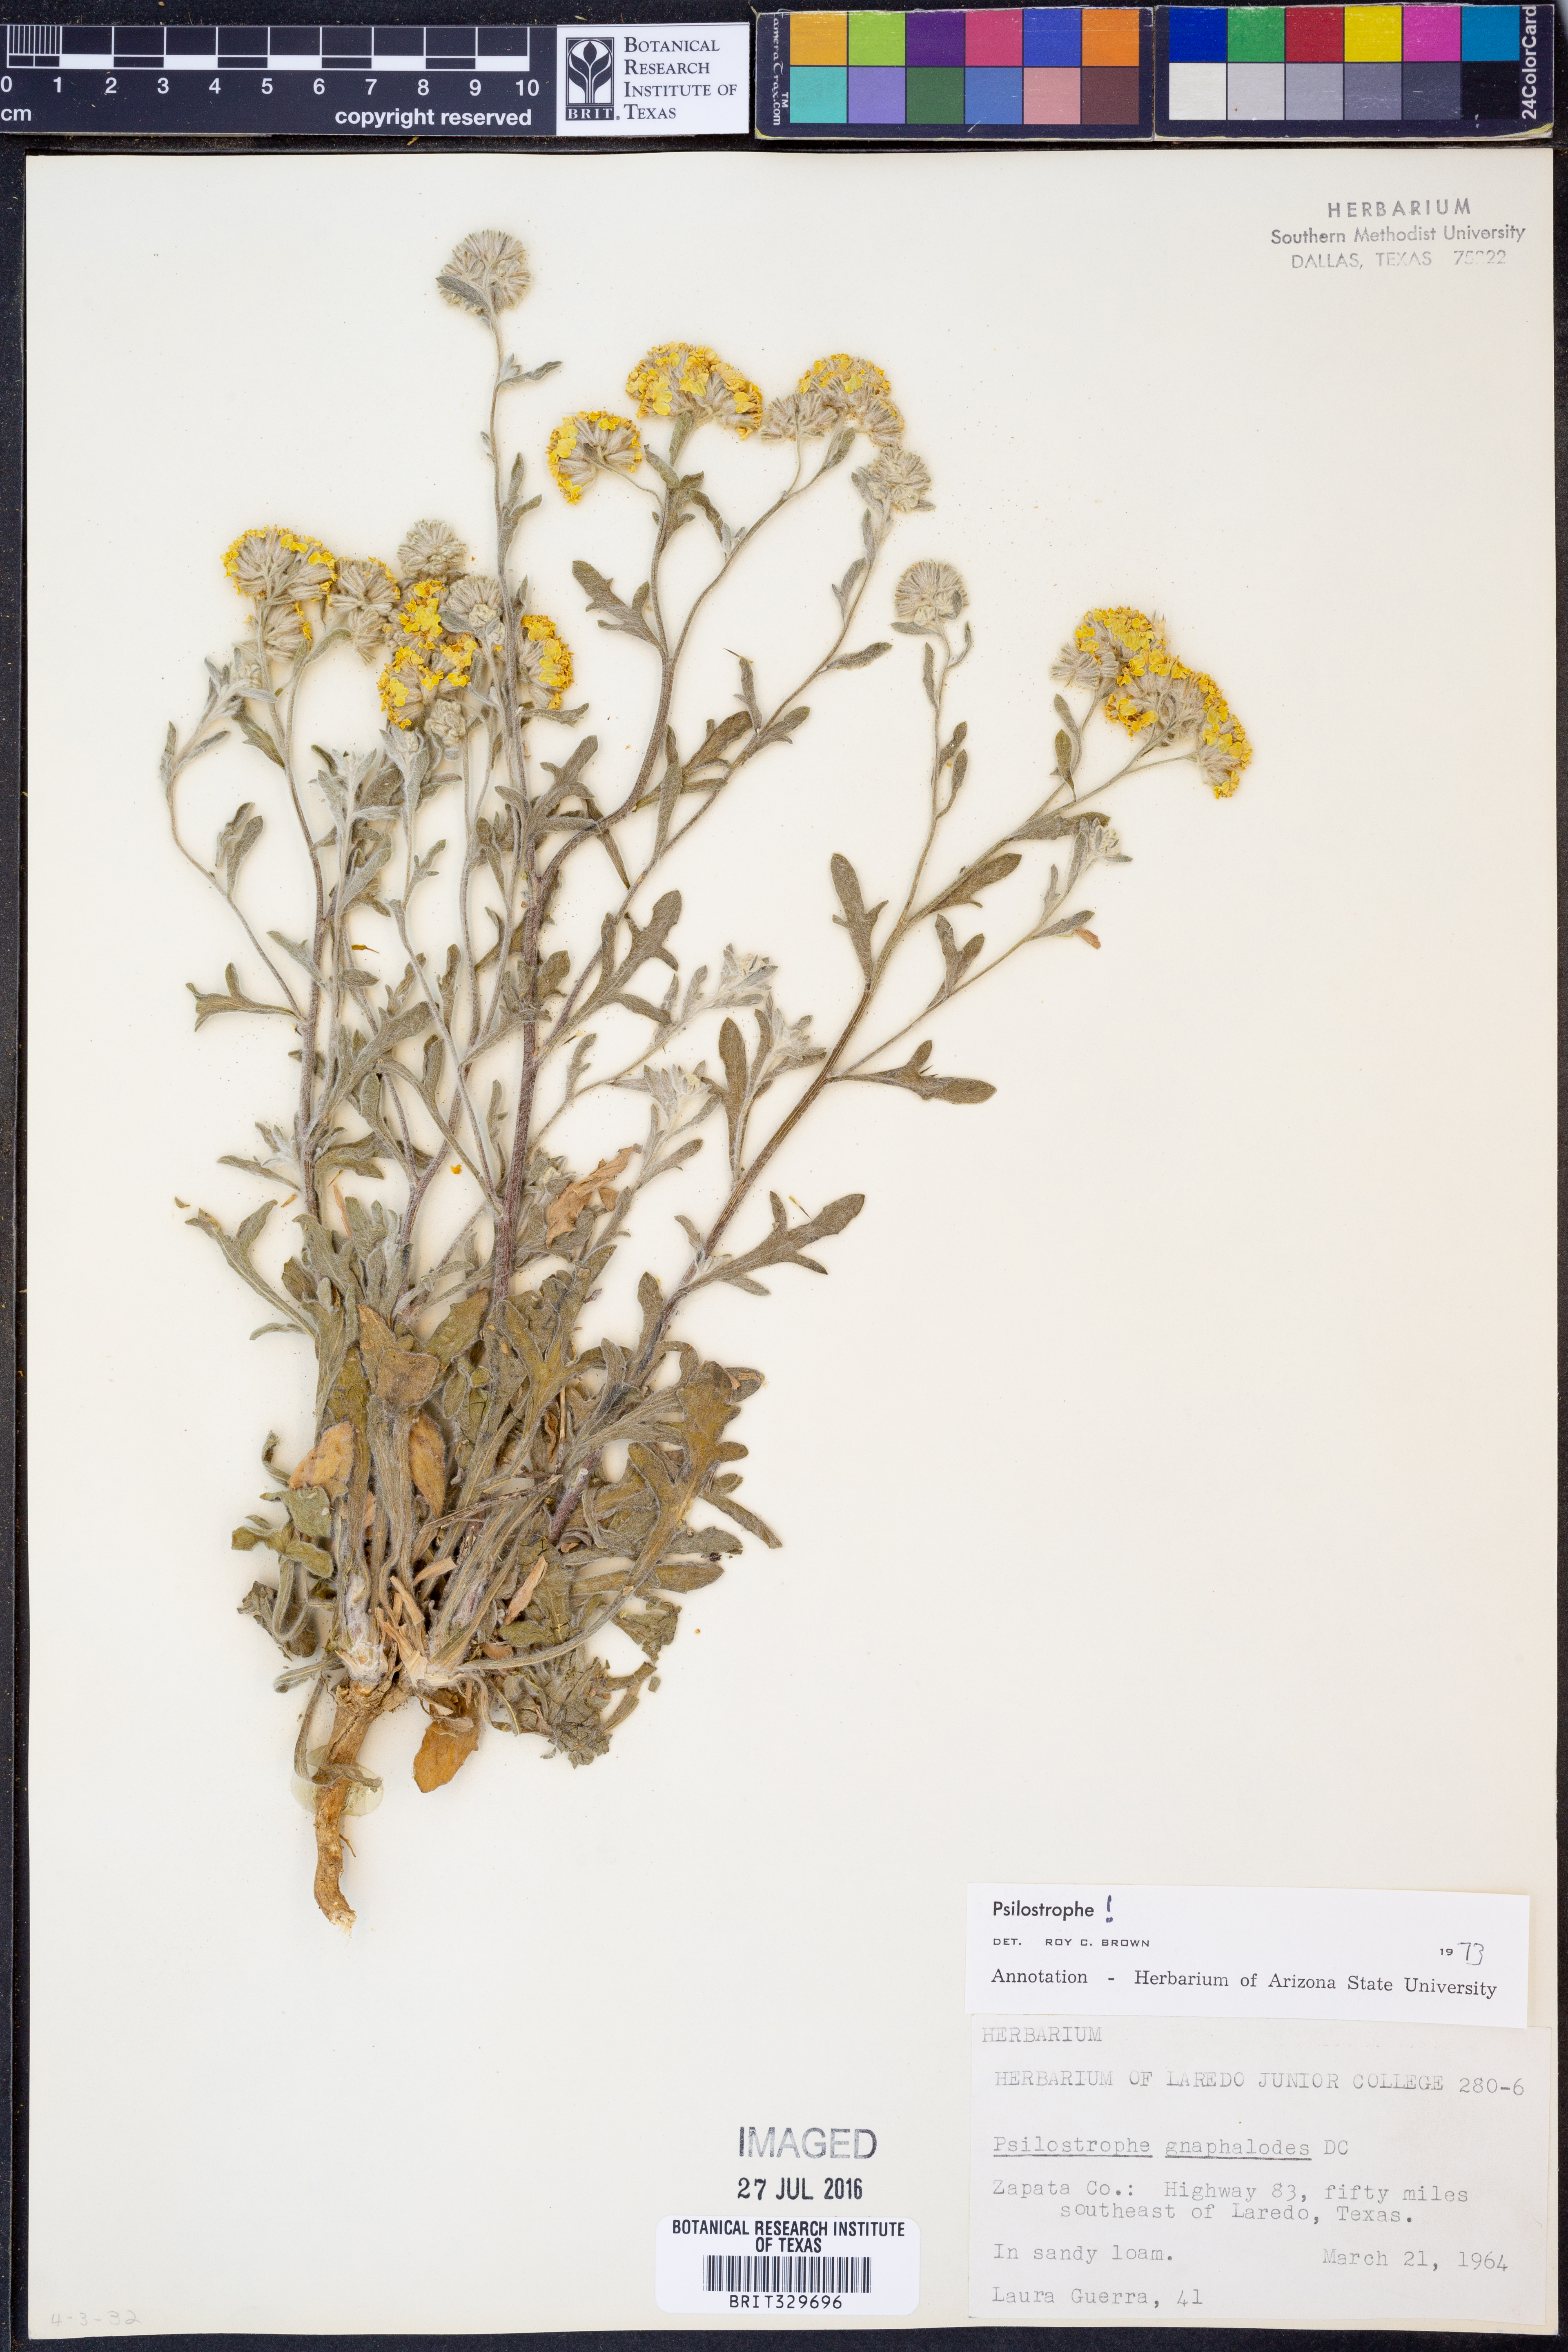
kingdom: Plantae
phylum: Tracheophyta
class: Magnoliopsida
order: Asterales
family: Asteraceae
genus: Psilostrophe
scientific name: Psilostrophe gnaphalioides
